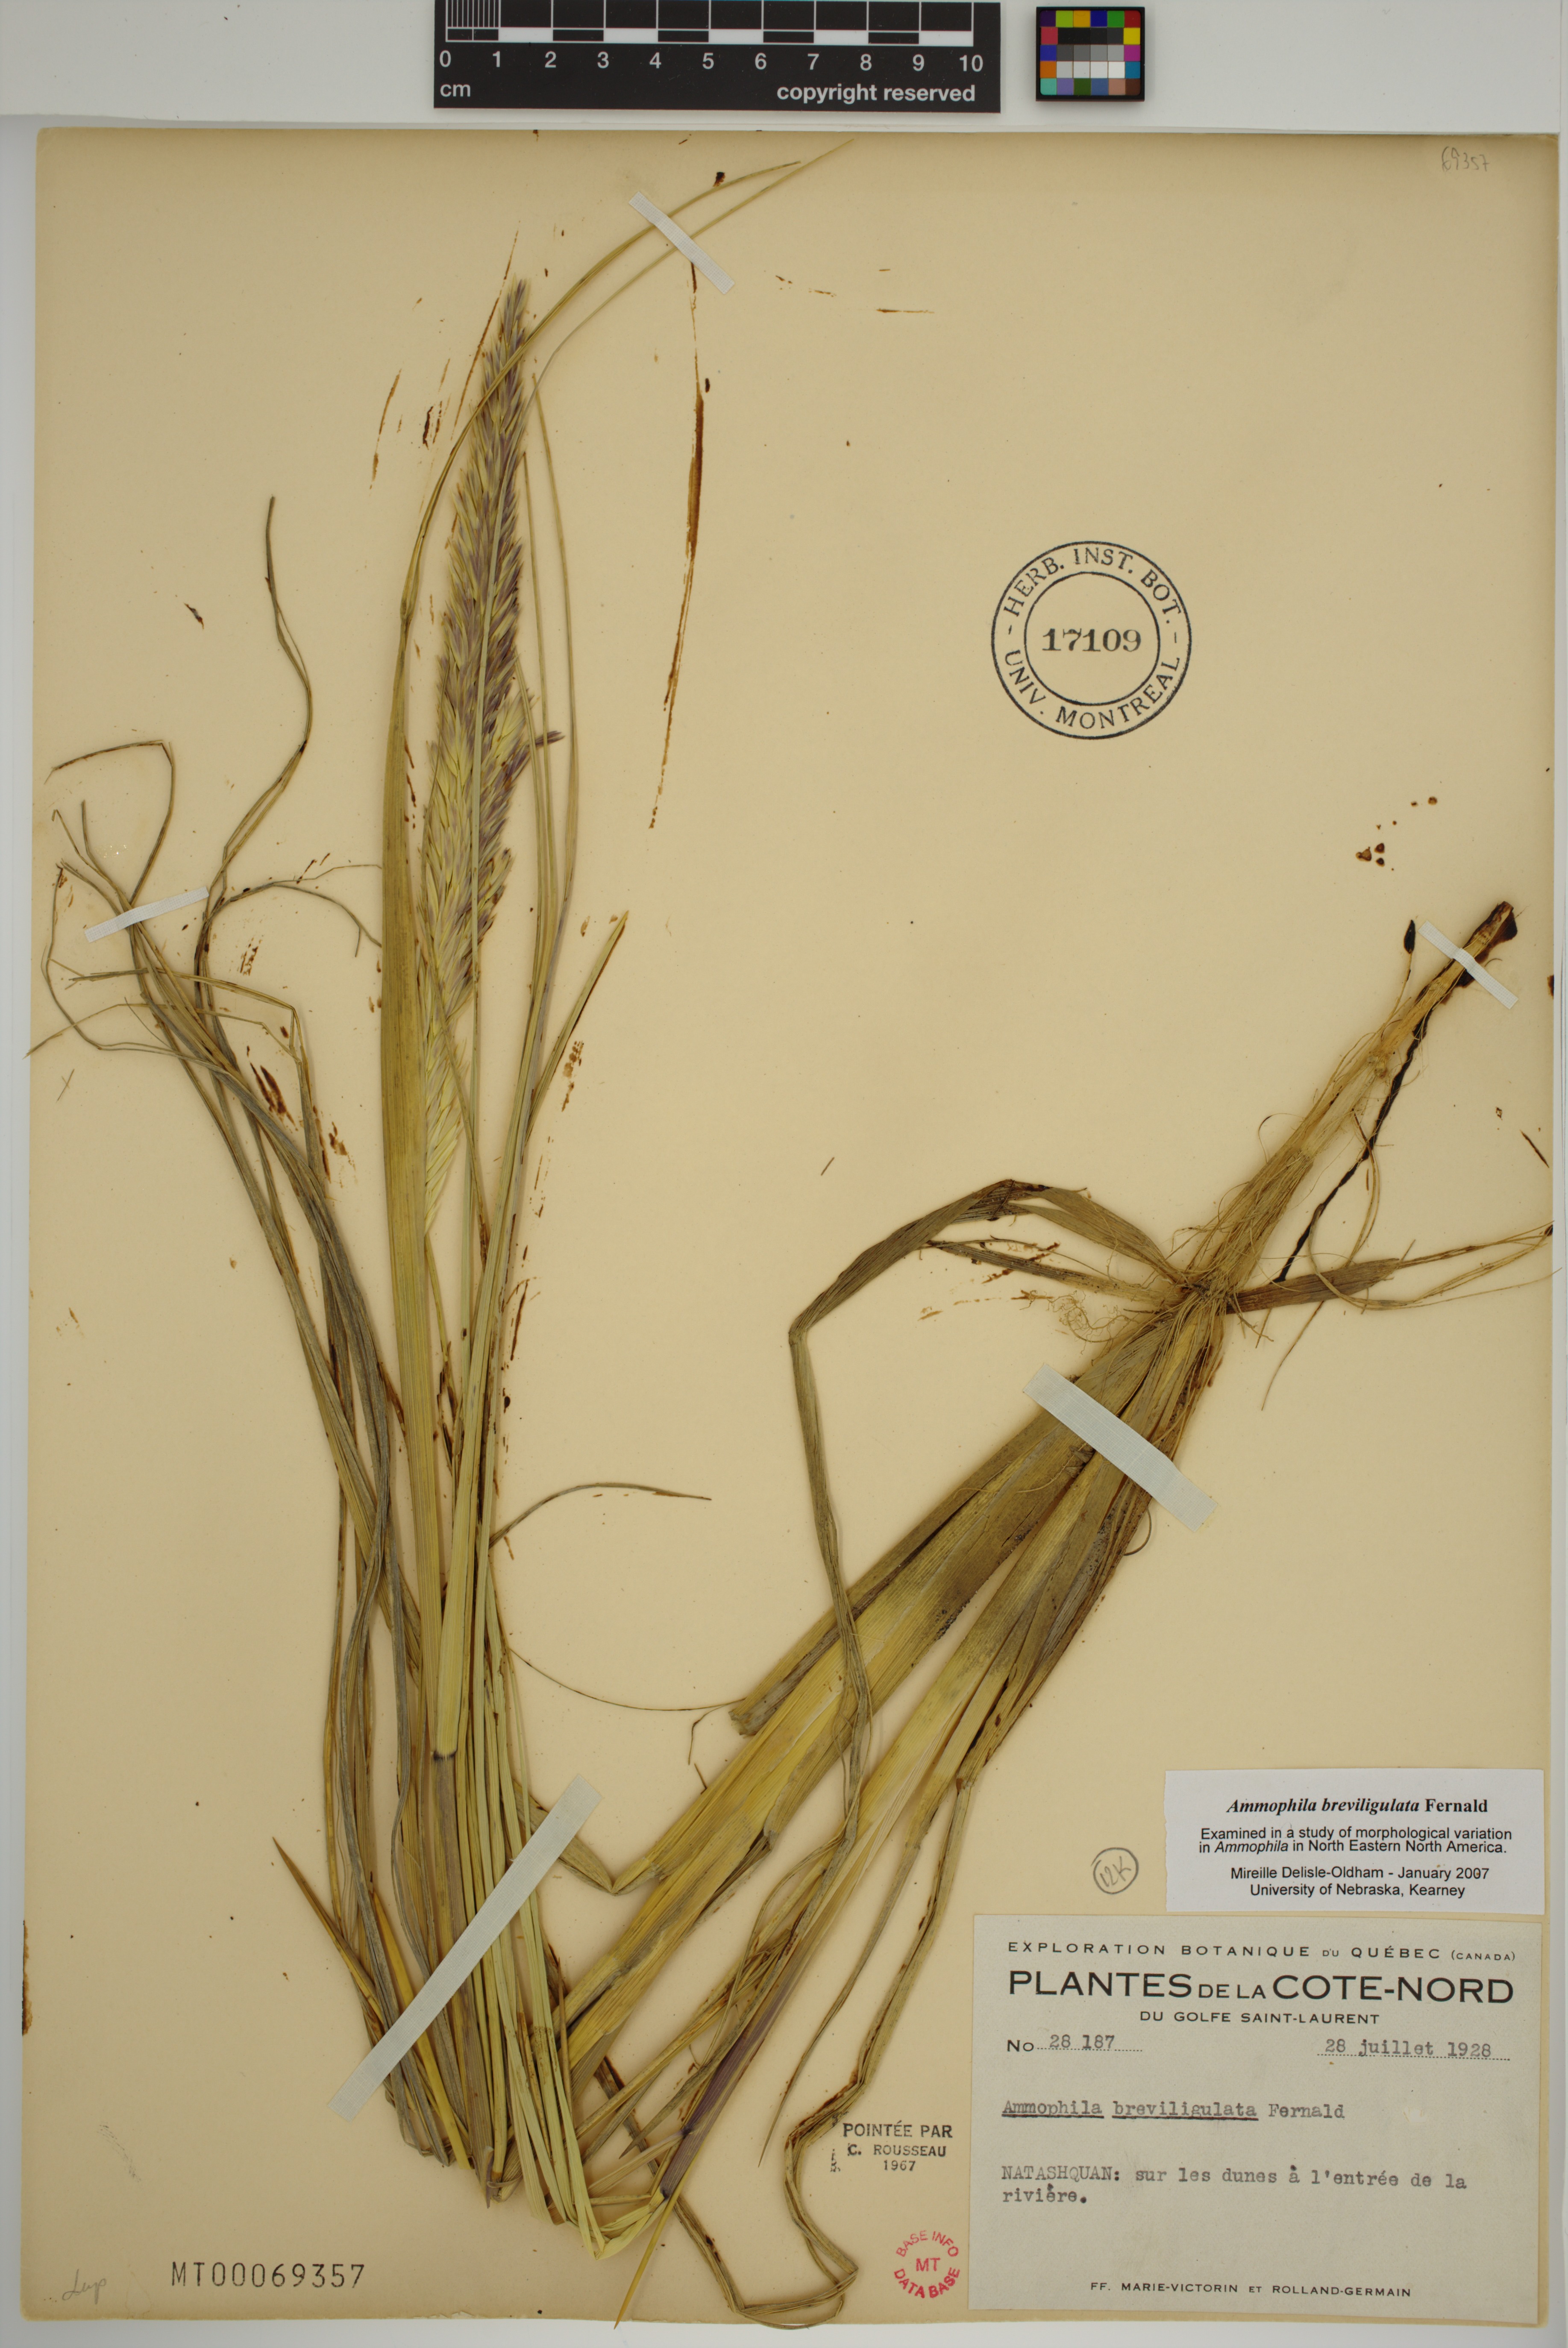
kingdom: Plantae
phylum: Tracheophyta
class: Liliopsida
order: Poales
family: Poaceae
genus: Calamagrostis
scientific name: Calamagrostis breviligulata
